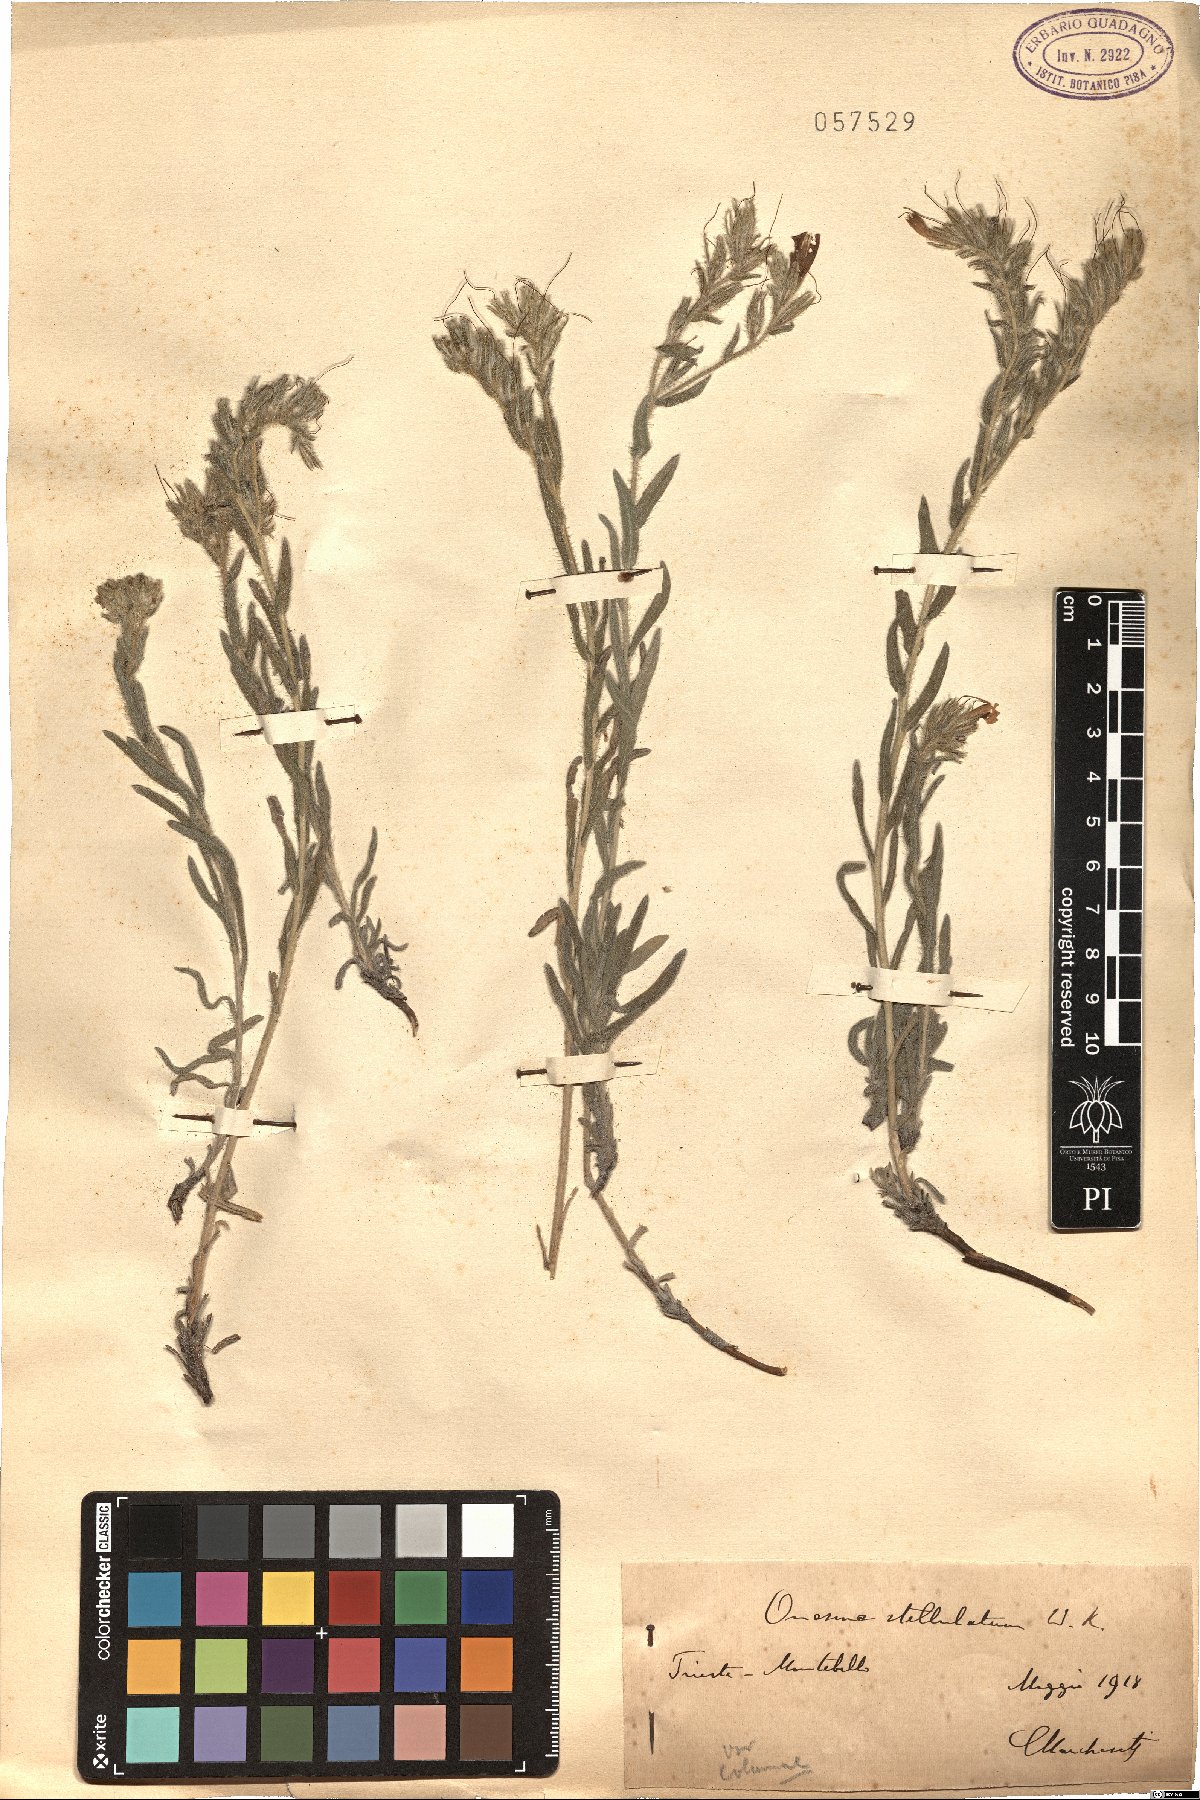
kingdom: Plantae
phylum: Tracheophyta
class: Magnoliopsida
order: Boraginales
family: Boraginaceae
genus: Onosma
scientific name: Onosma stellulata
